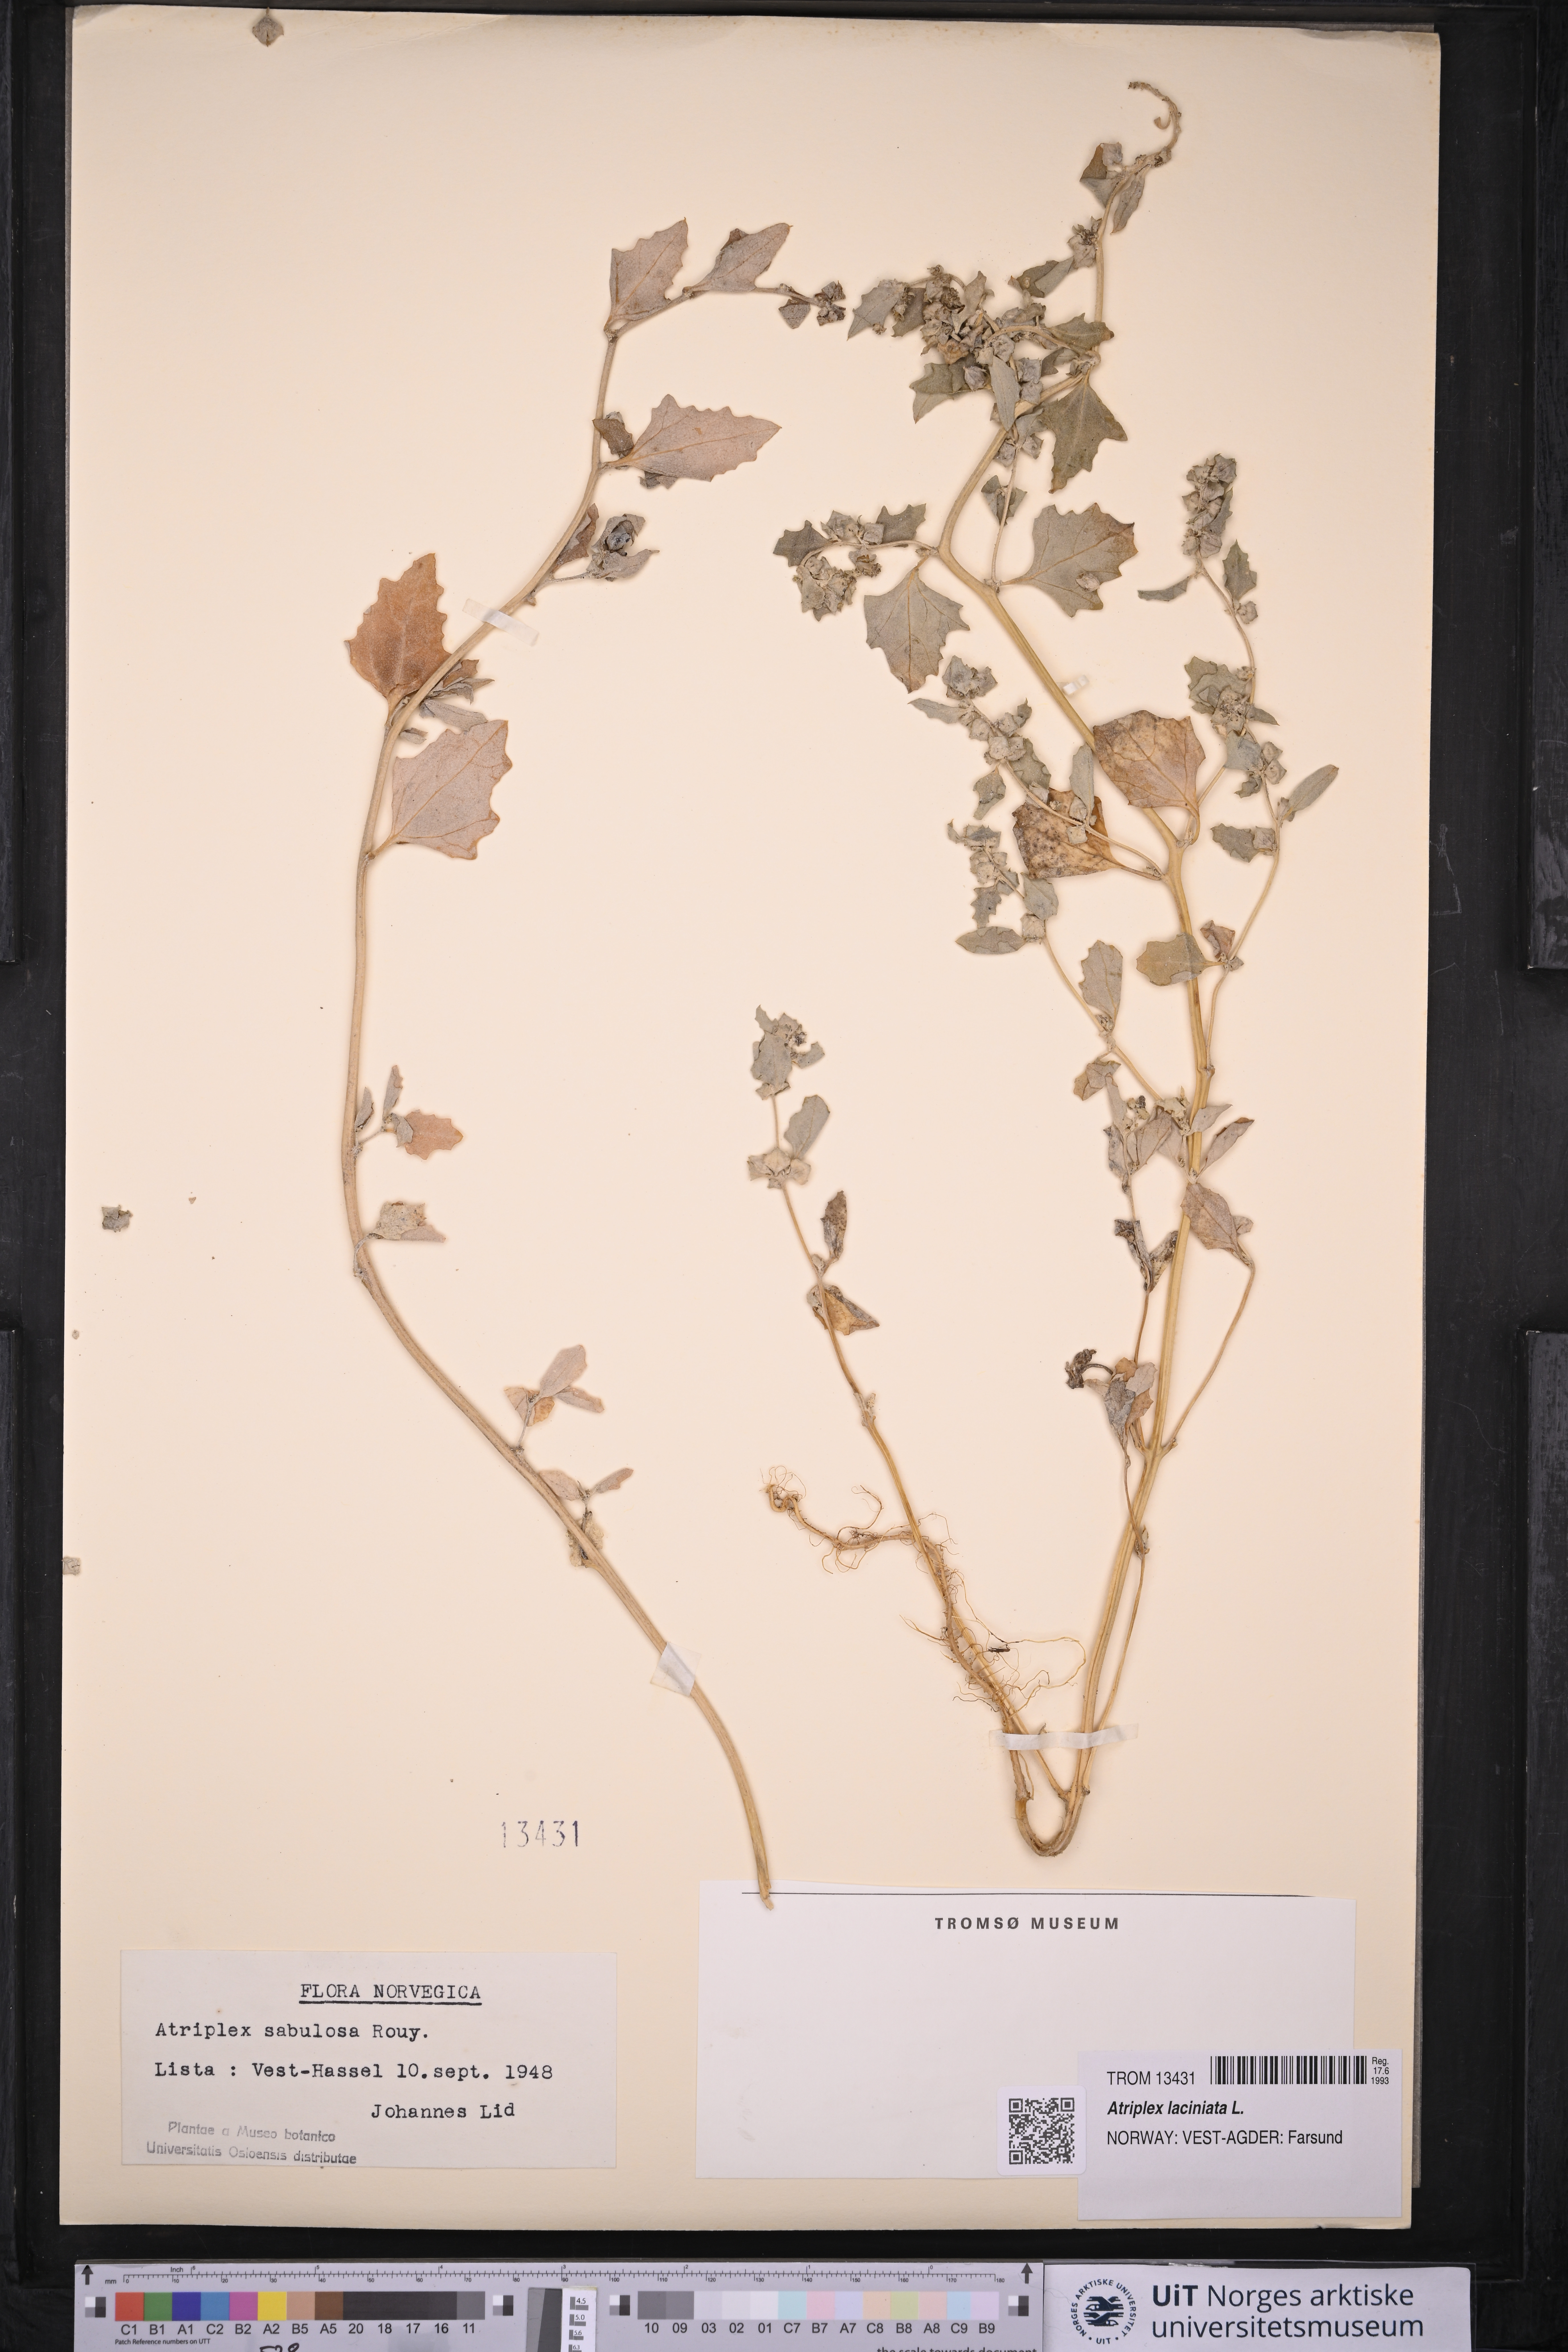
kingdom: Plantae
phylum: Tracheophyta
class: Magnoliopsida
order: Caryophyllales
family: Amaranthaceae
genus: Atriplex
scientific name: Atriplex laciniata
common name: Frosted orache
